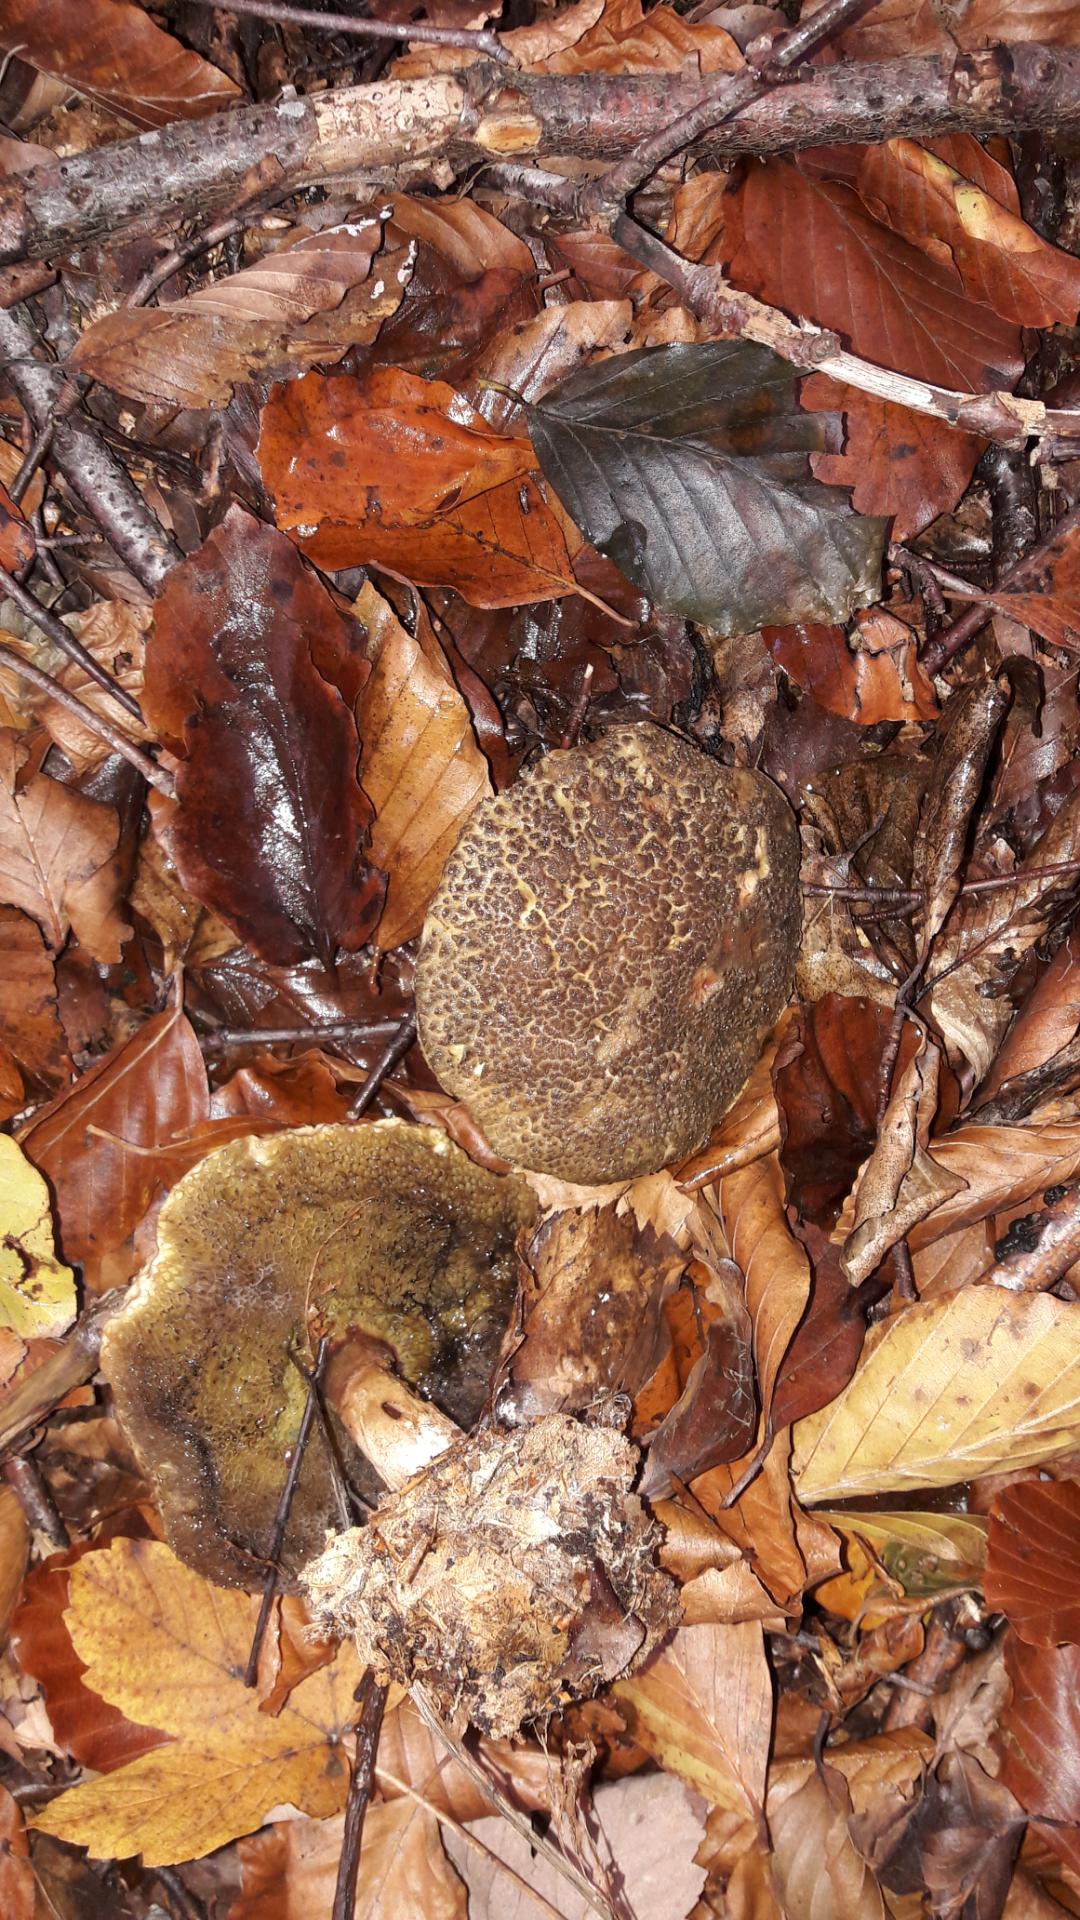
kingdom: Fungi
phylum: Basidiomycota
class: Agaricomycetes
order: Boletales
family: Boletaceae
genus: Xerocomellus
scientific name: Xerocomellus
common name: dværgrørhat
